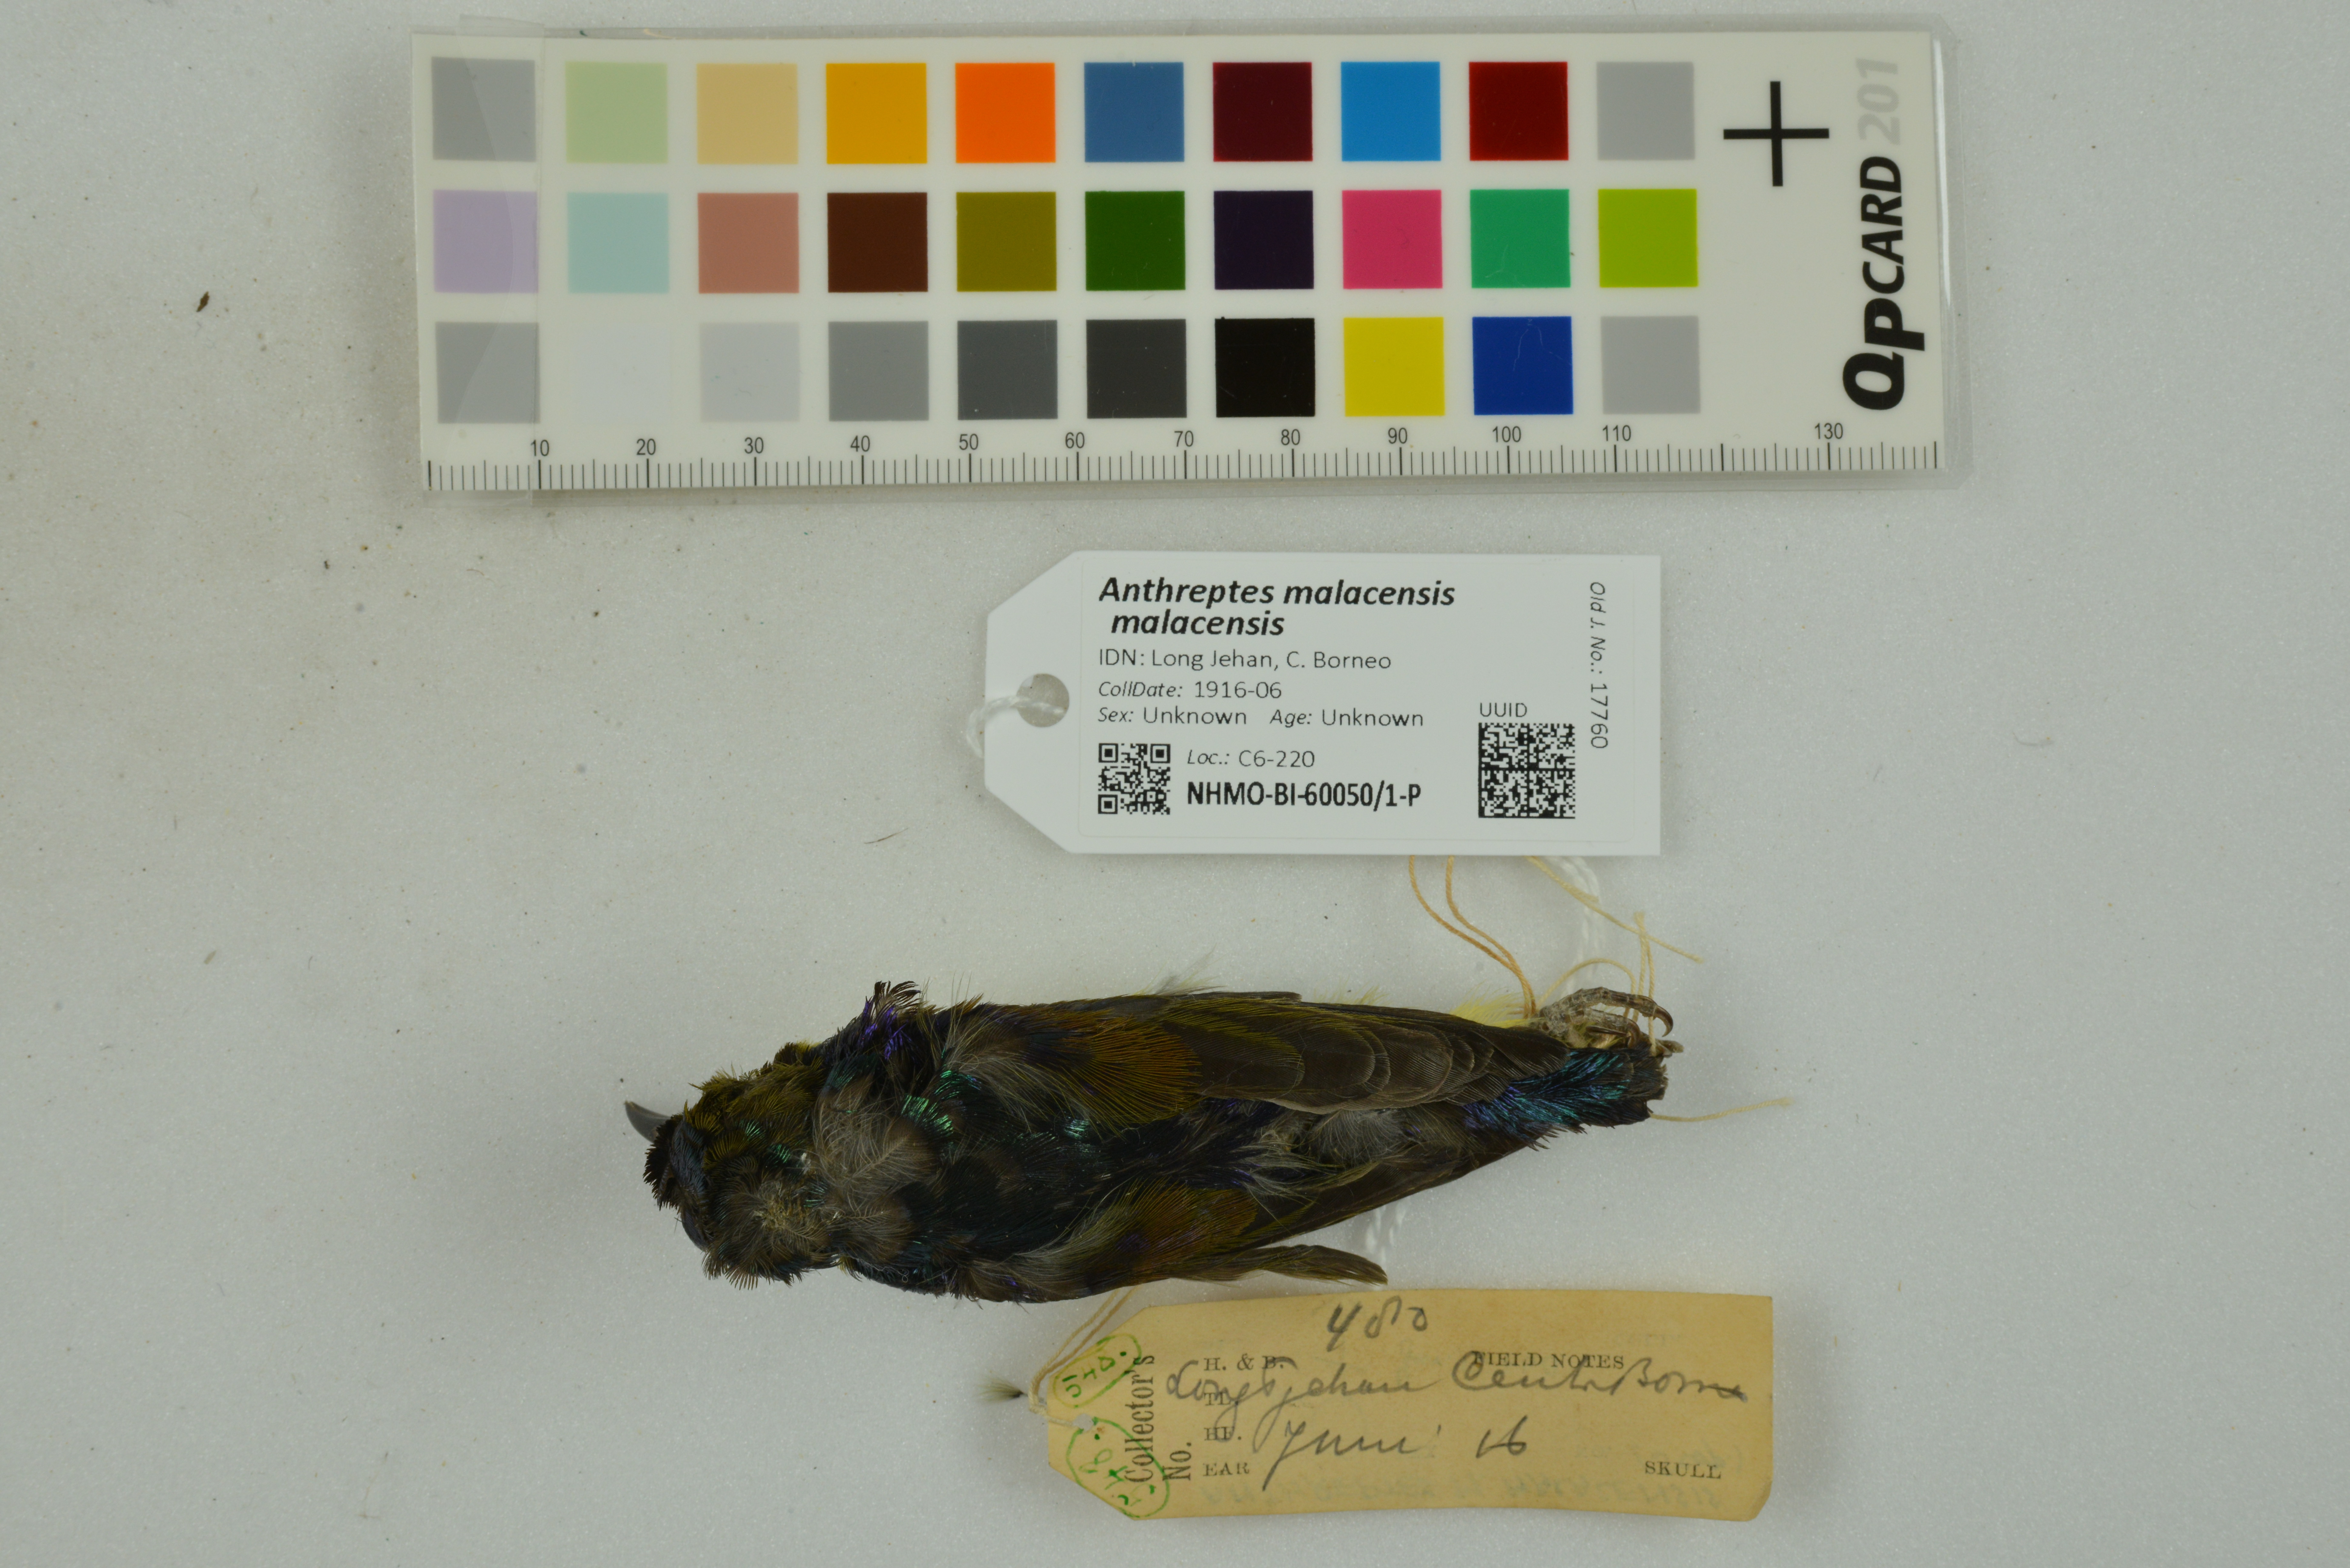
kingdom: Animalia
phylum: Chordata
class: Aves
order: Passeriformes
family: Nectariniidae
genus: Anthreptes
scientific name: Anthreptes malacensis
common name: Brown-throated sunbird
